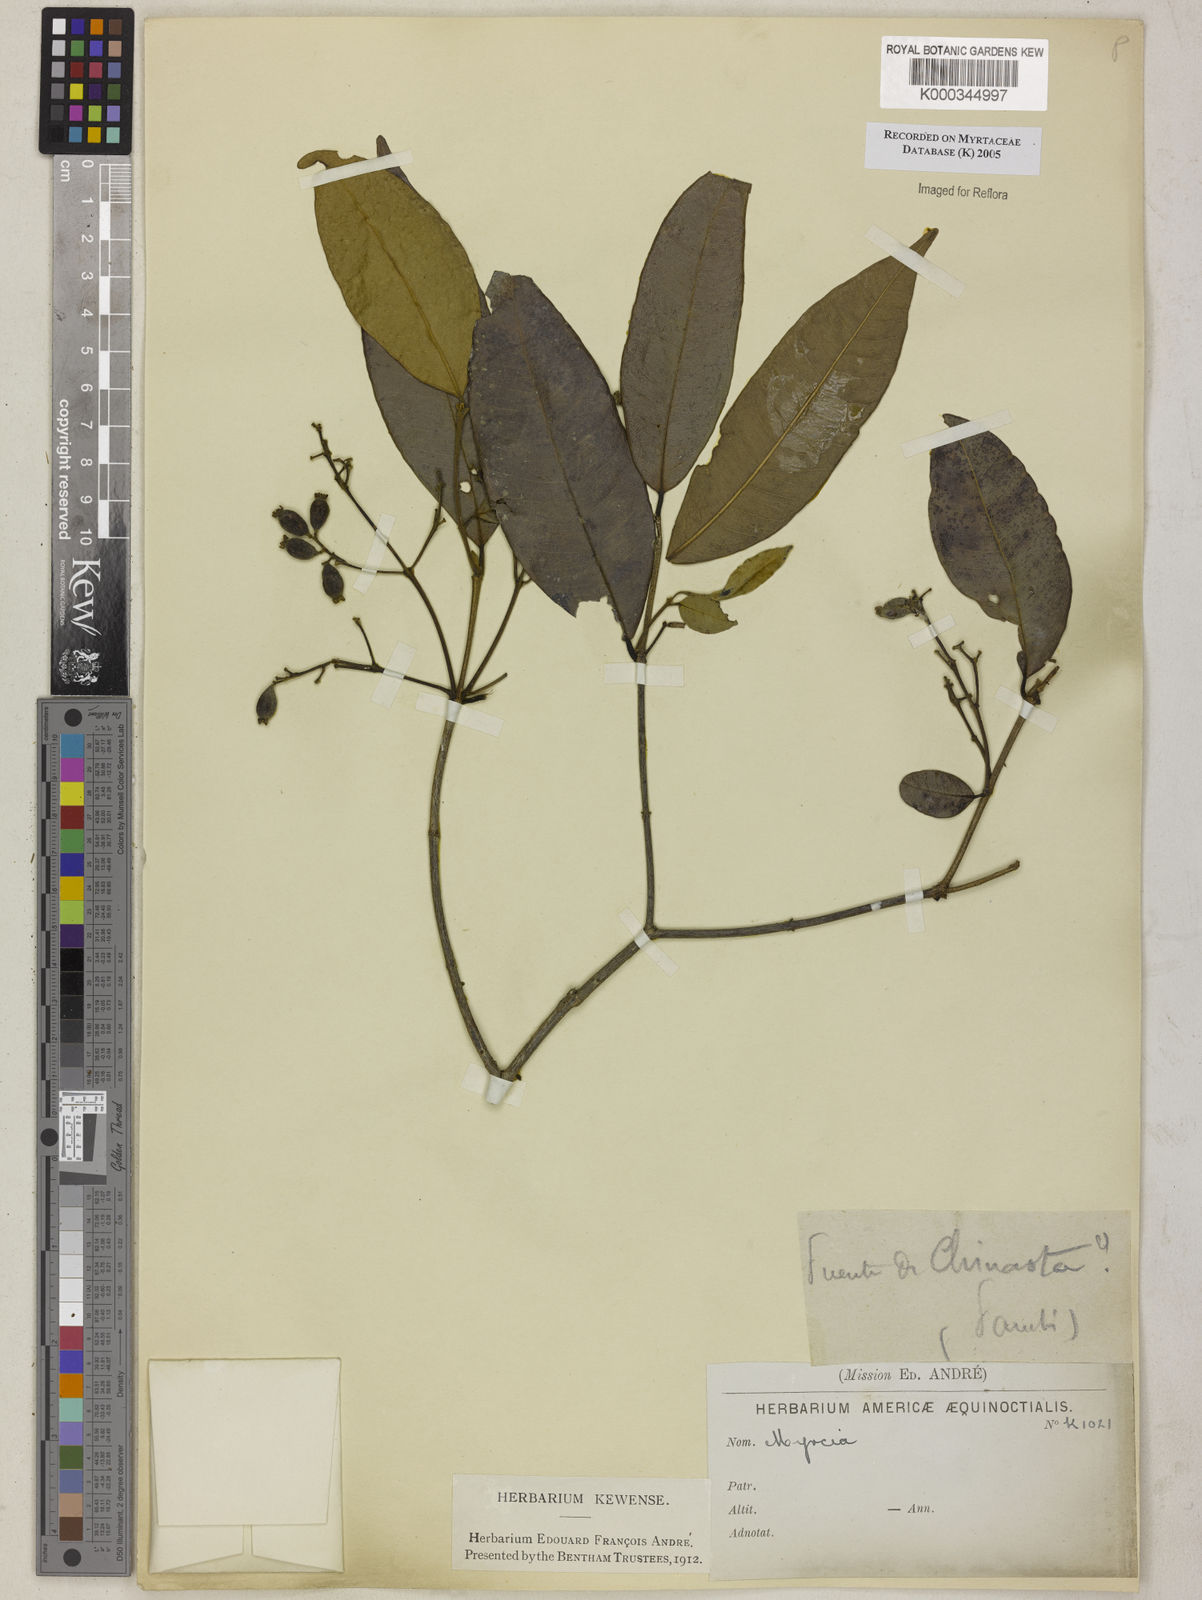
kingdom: Plantae
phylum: Tracheophyta
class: Magnoliopsida
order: Myrtales
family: Myrtaceae
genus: Myrcia
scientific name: Myrcia
